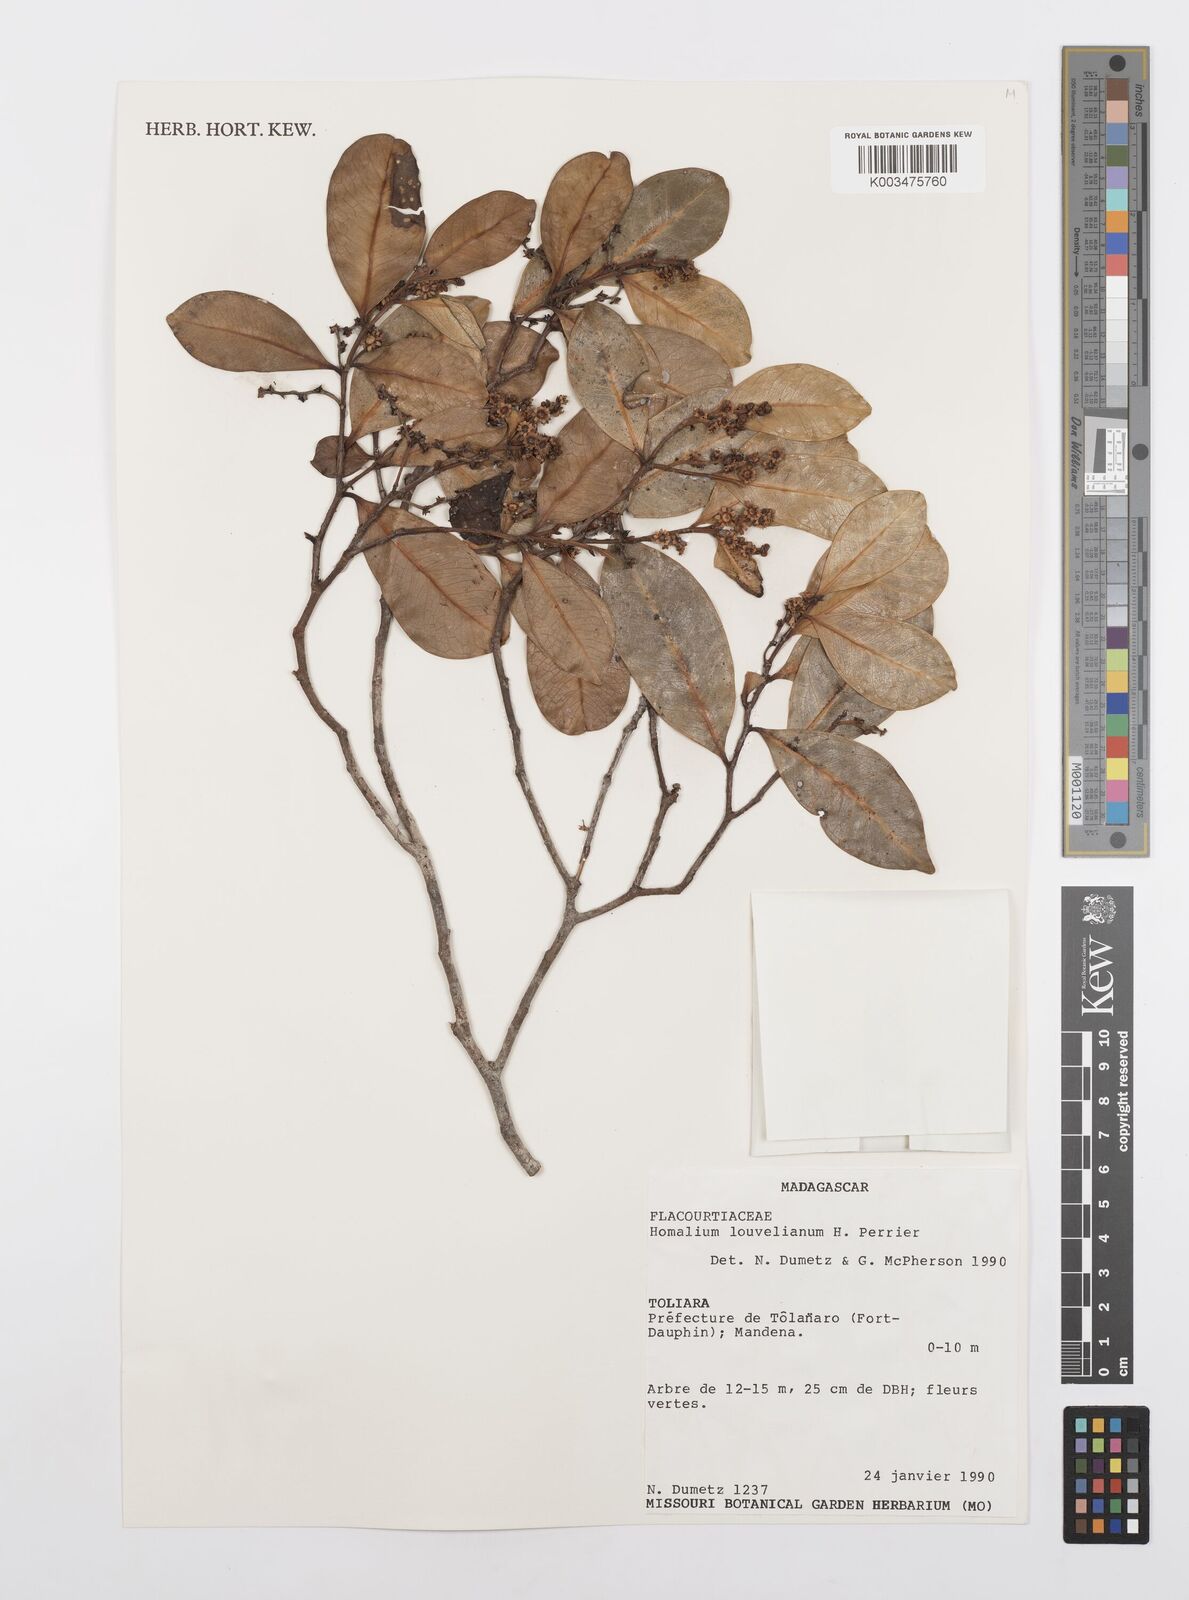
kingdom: Plantae
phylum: Tracheophyta
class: Magnoliopsida
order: Malpighiales
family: Salicaceae
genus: Homalium
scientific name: Homalium louvelianum
